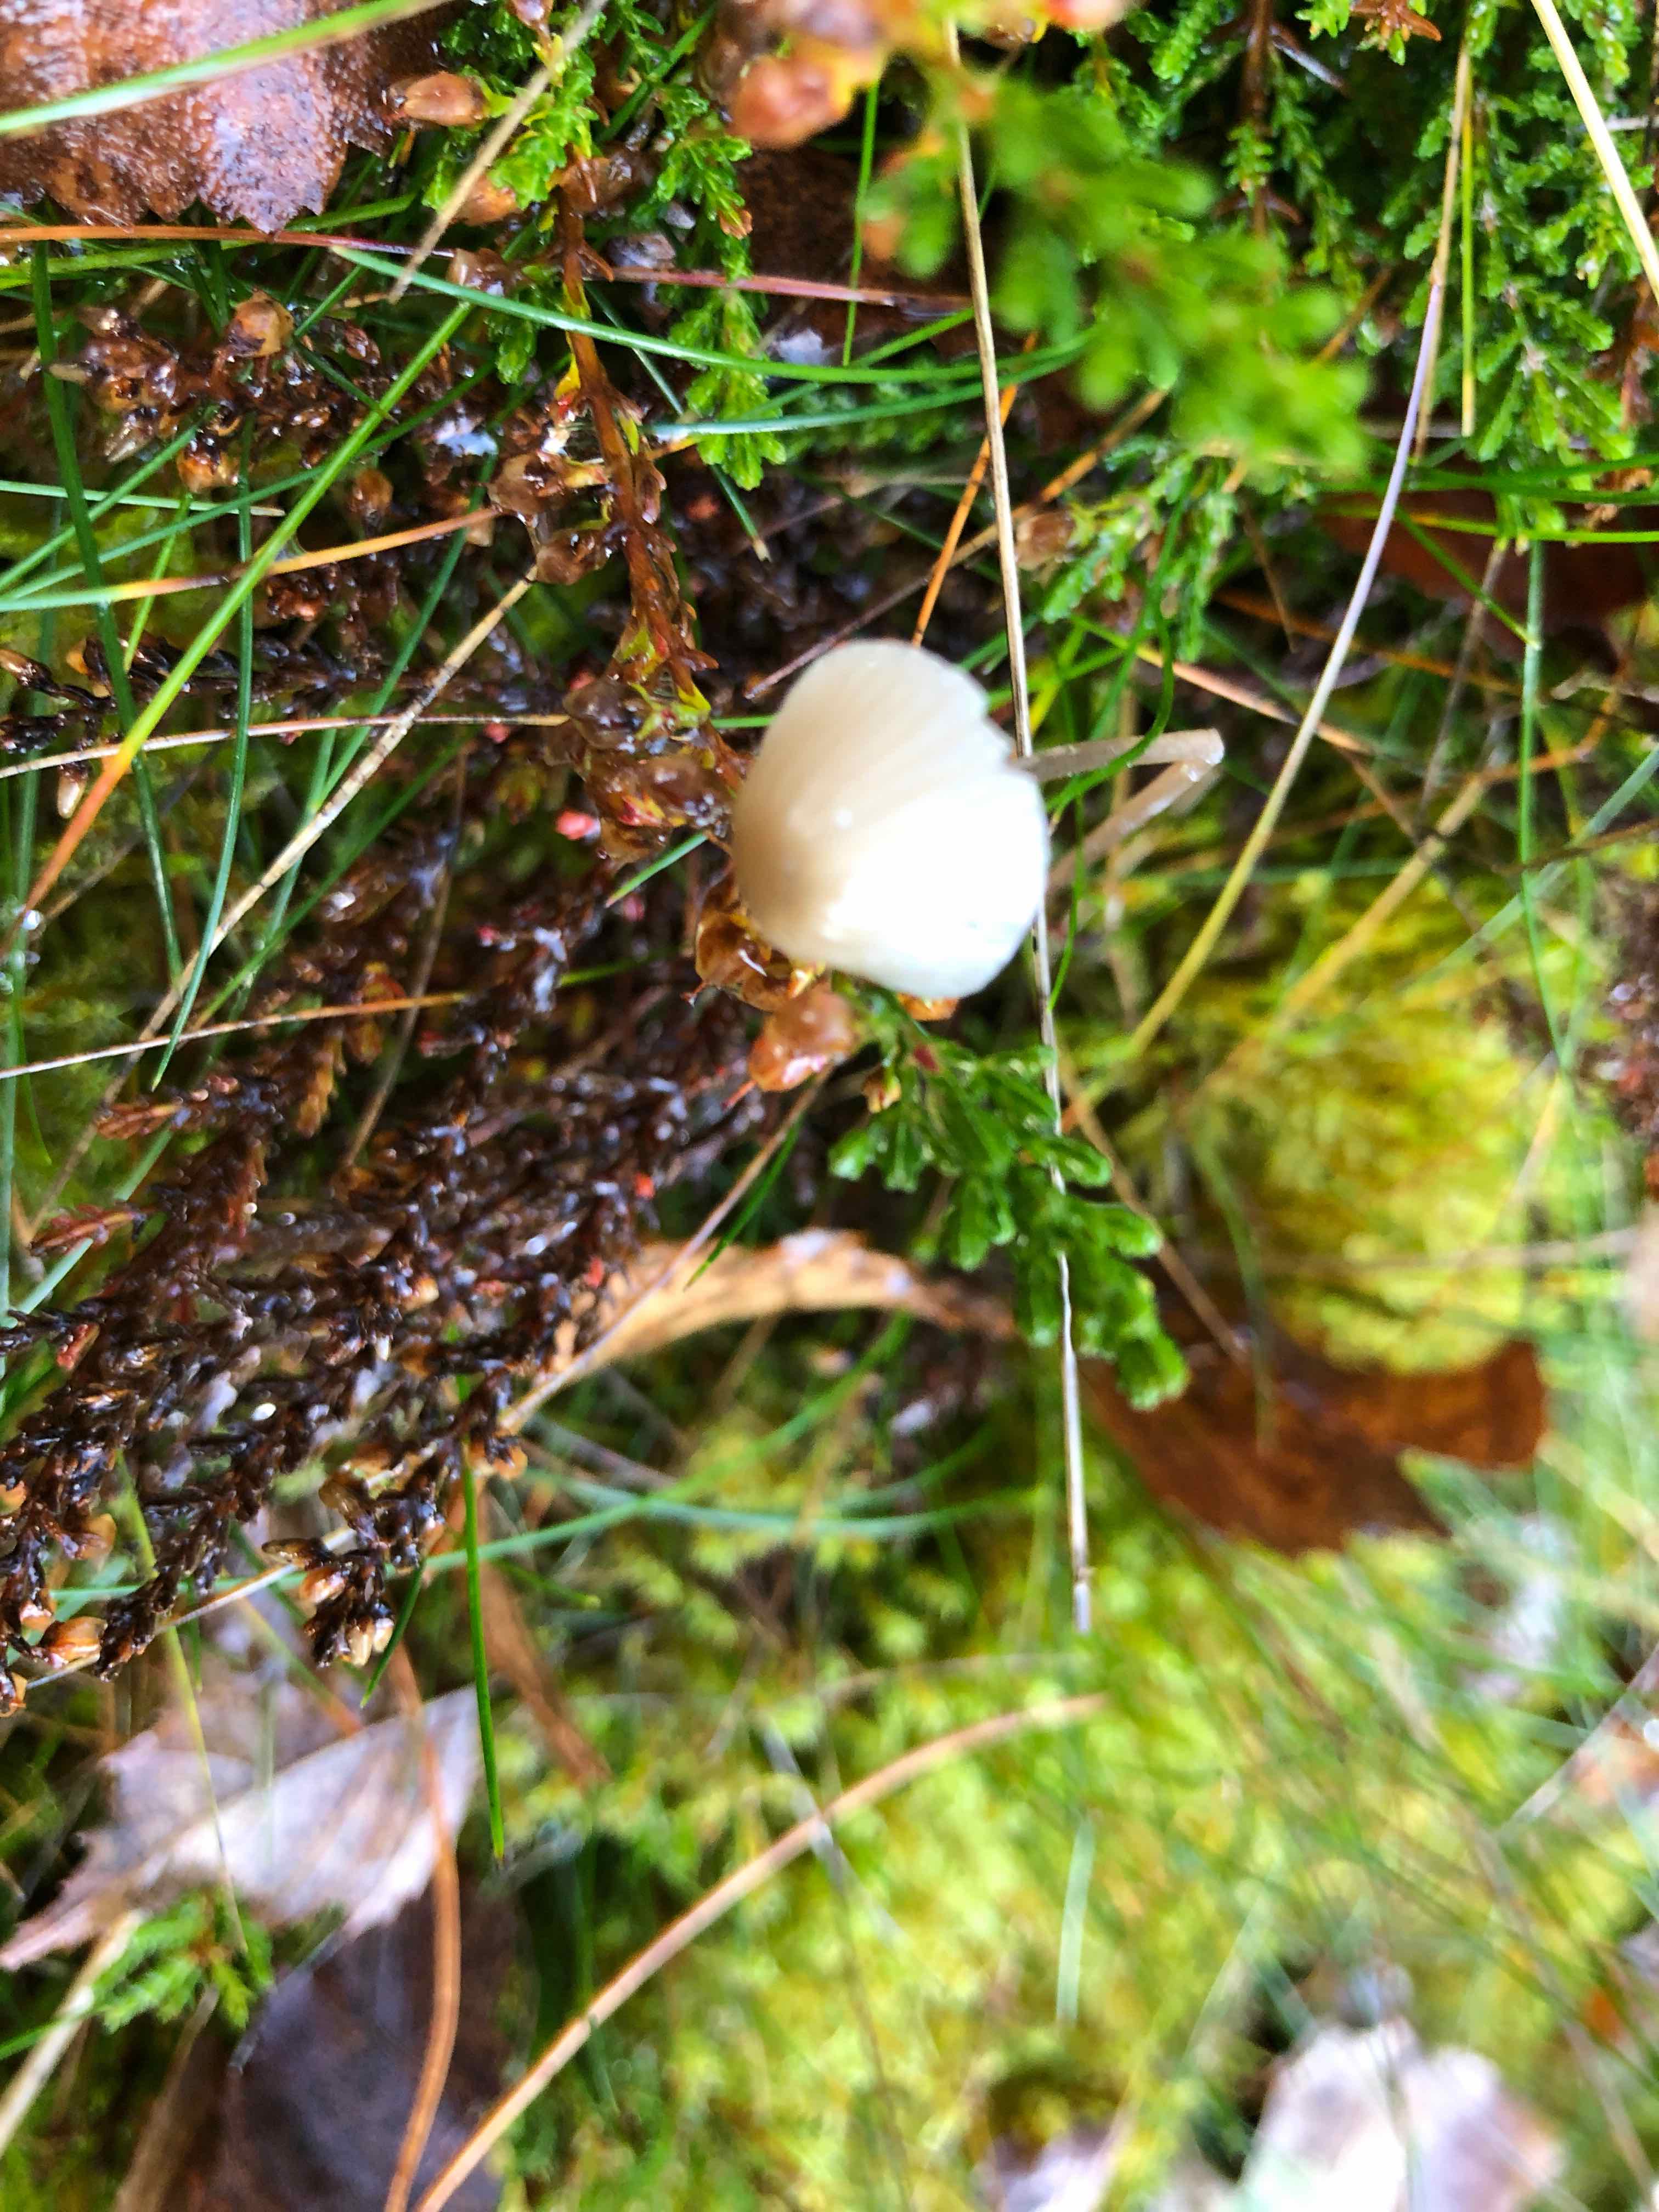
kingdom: Fungi
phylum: Basidiomycota
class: Agaricomycetes
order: Agaricales
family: Mycenaceae
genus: Mycena
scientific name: Mycena galopus
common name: hvidmælket huesvamp
